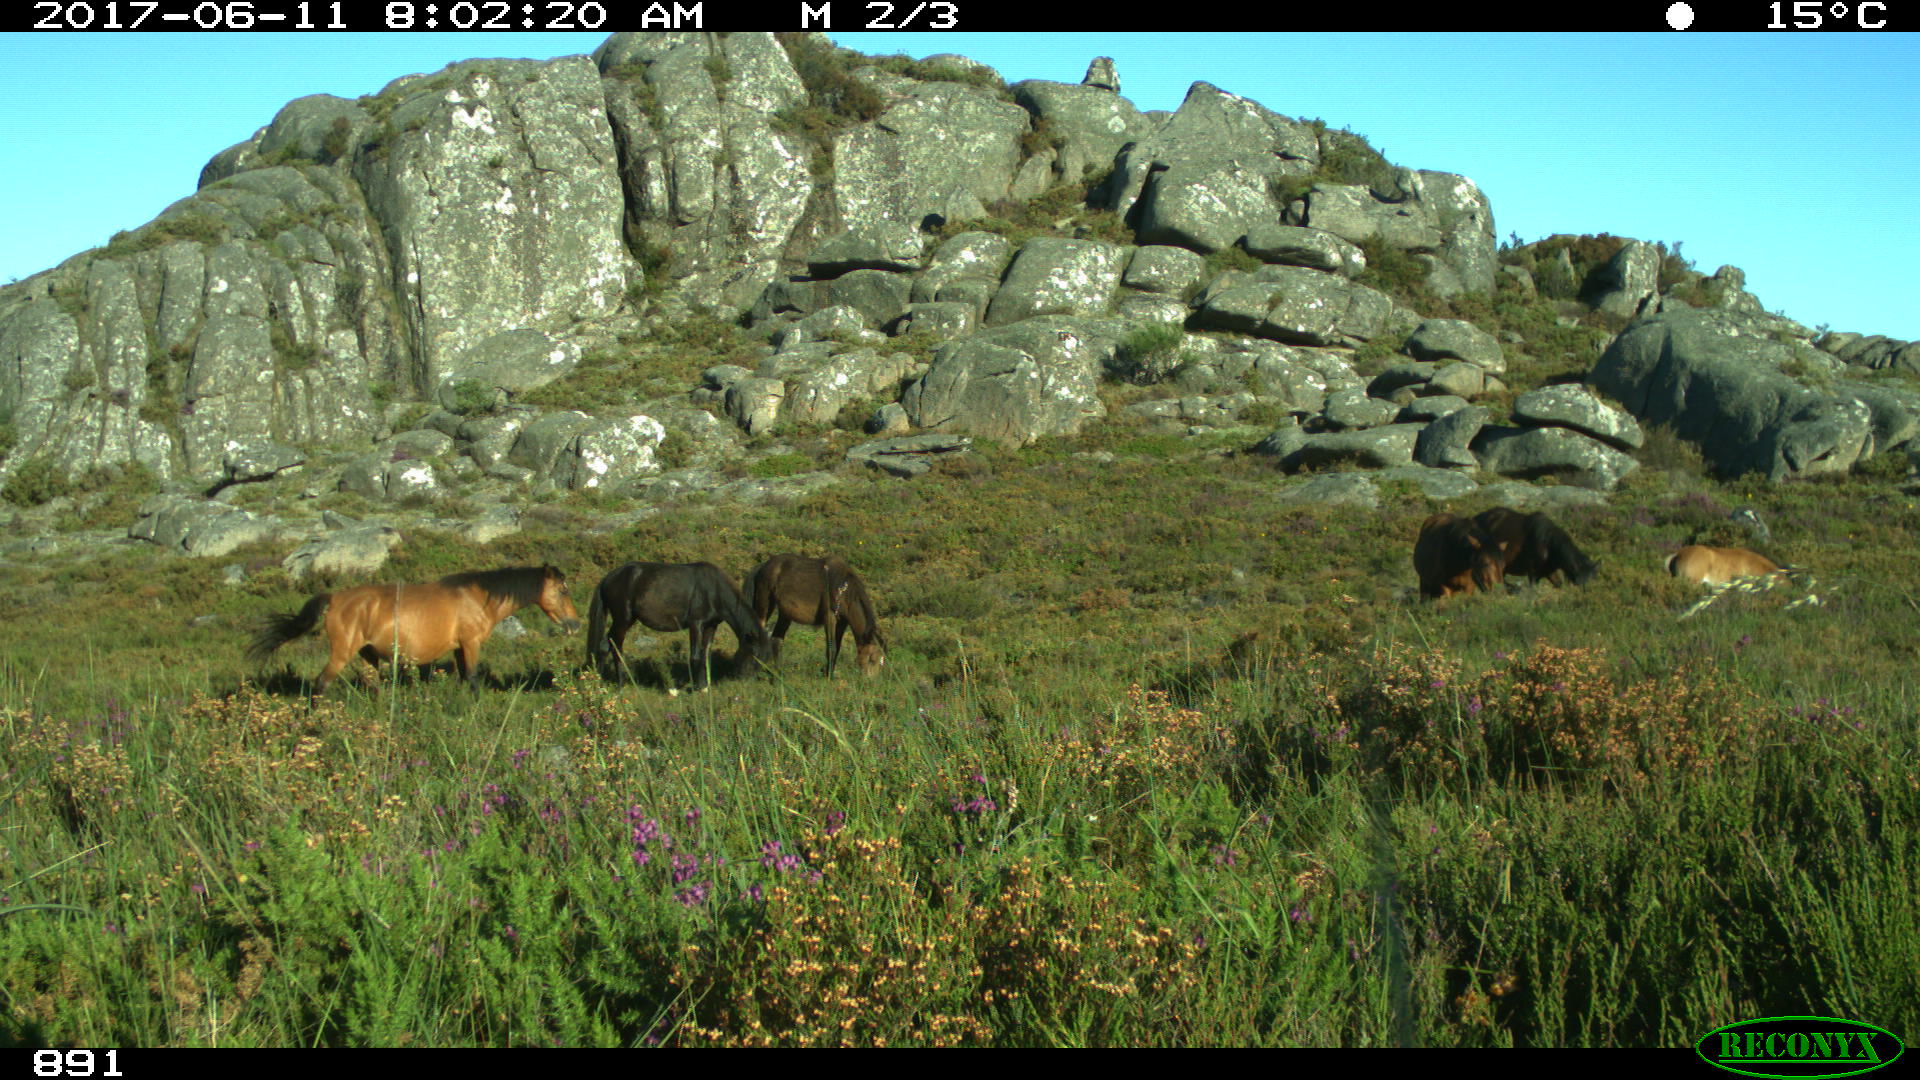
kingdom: Animalia
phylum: Chordata
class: Mammalia
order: Perissodactyla
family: Equidae
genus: Equus
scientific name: Equus caballus
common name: Horse
